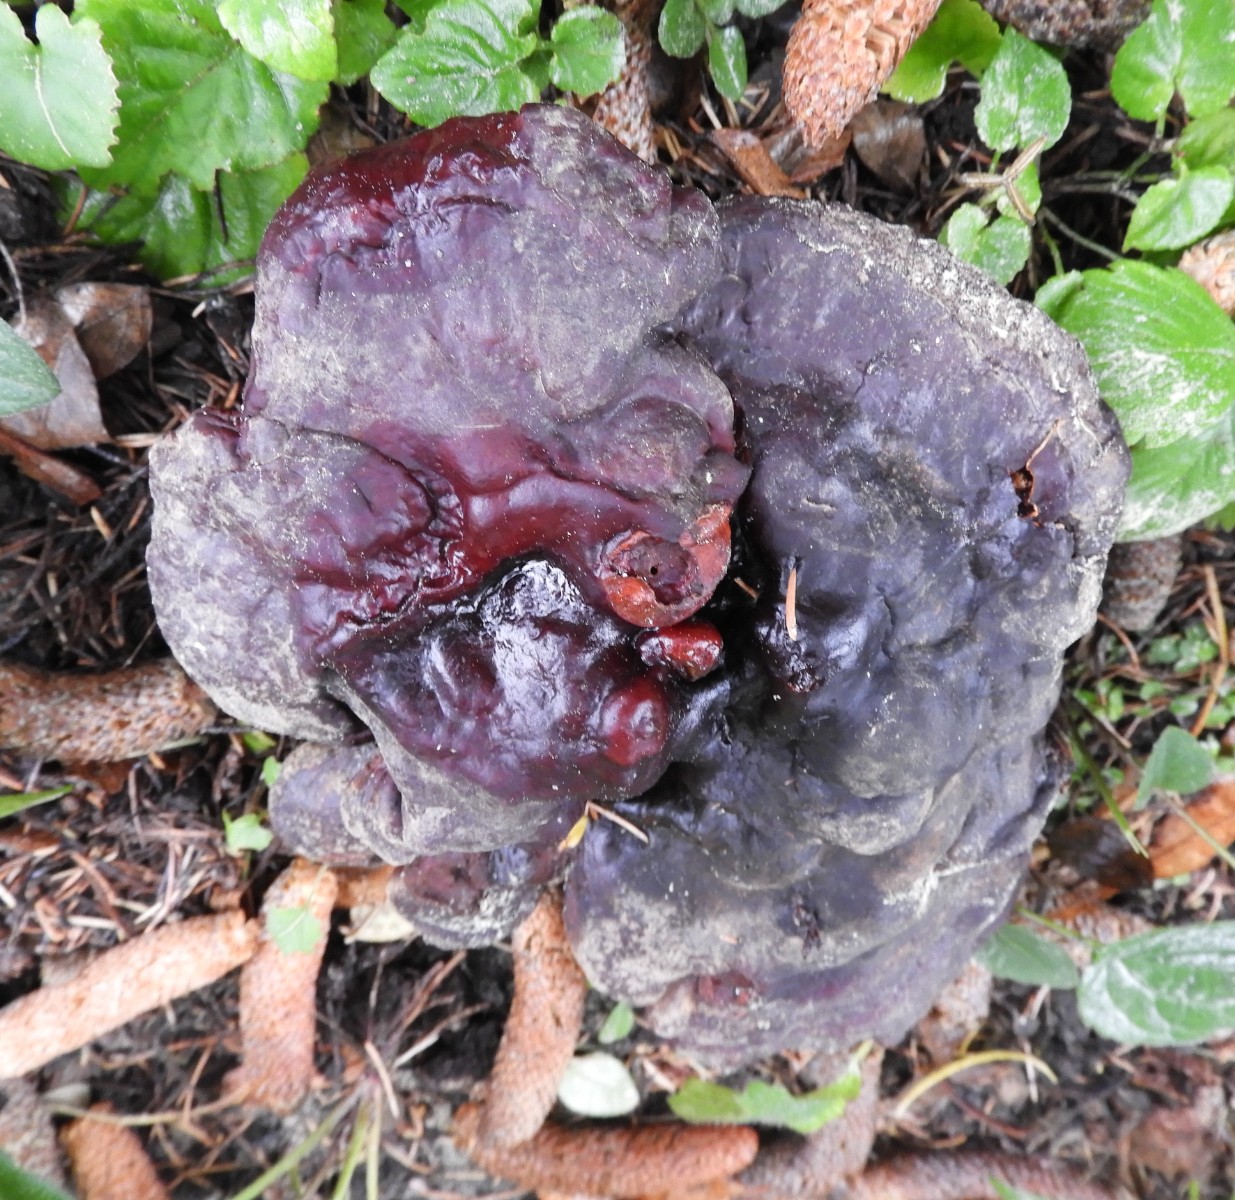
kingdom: Fungi
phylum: Basidiomycota
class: Agaricomycetes
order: Polyporales
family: Polyporaceae
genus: Ganoderma
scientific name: Ganoderma lucidum
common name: skinnende lakporesvamp
